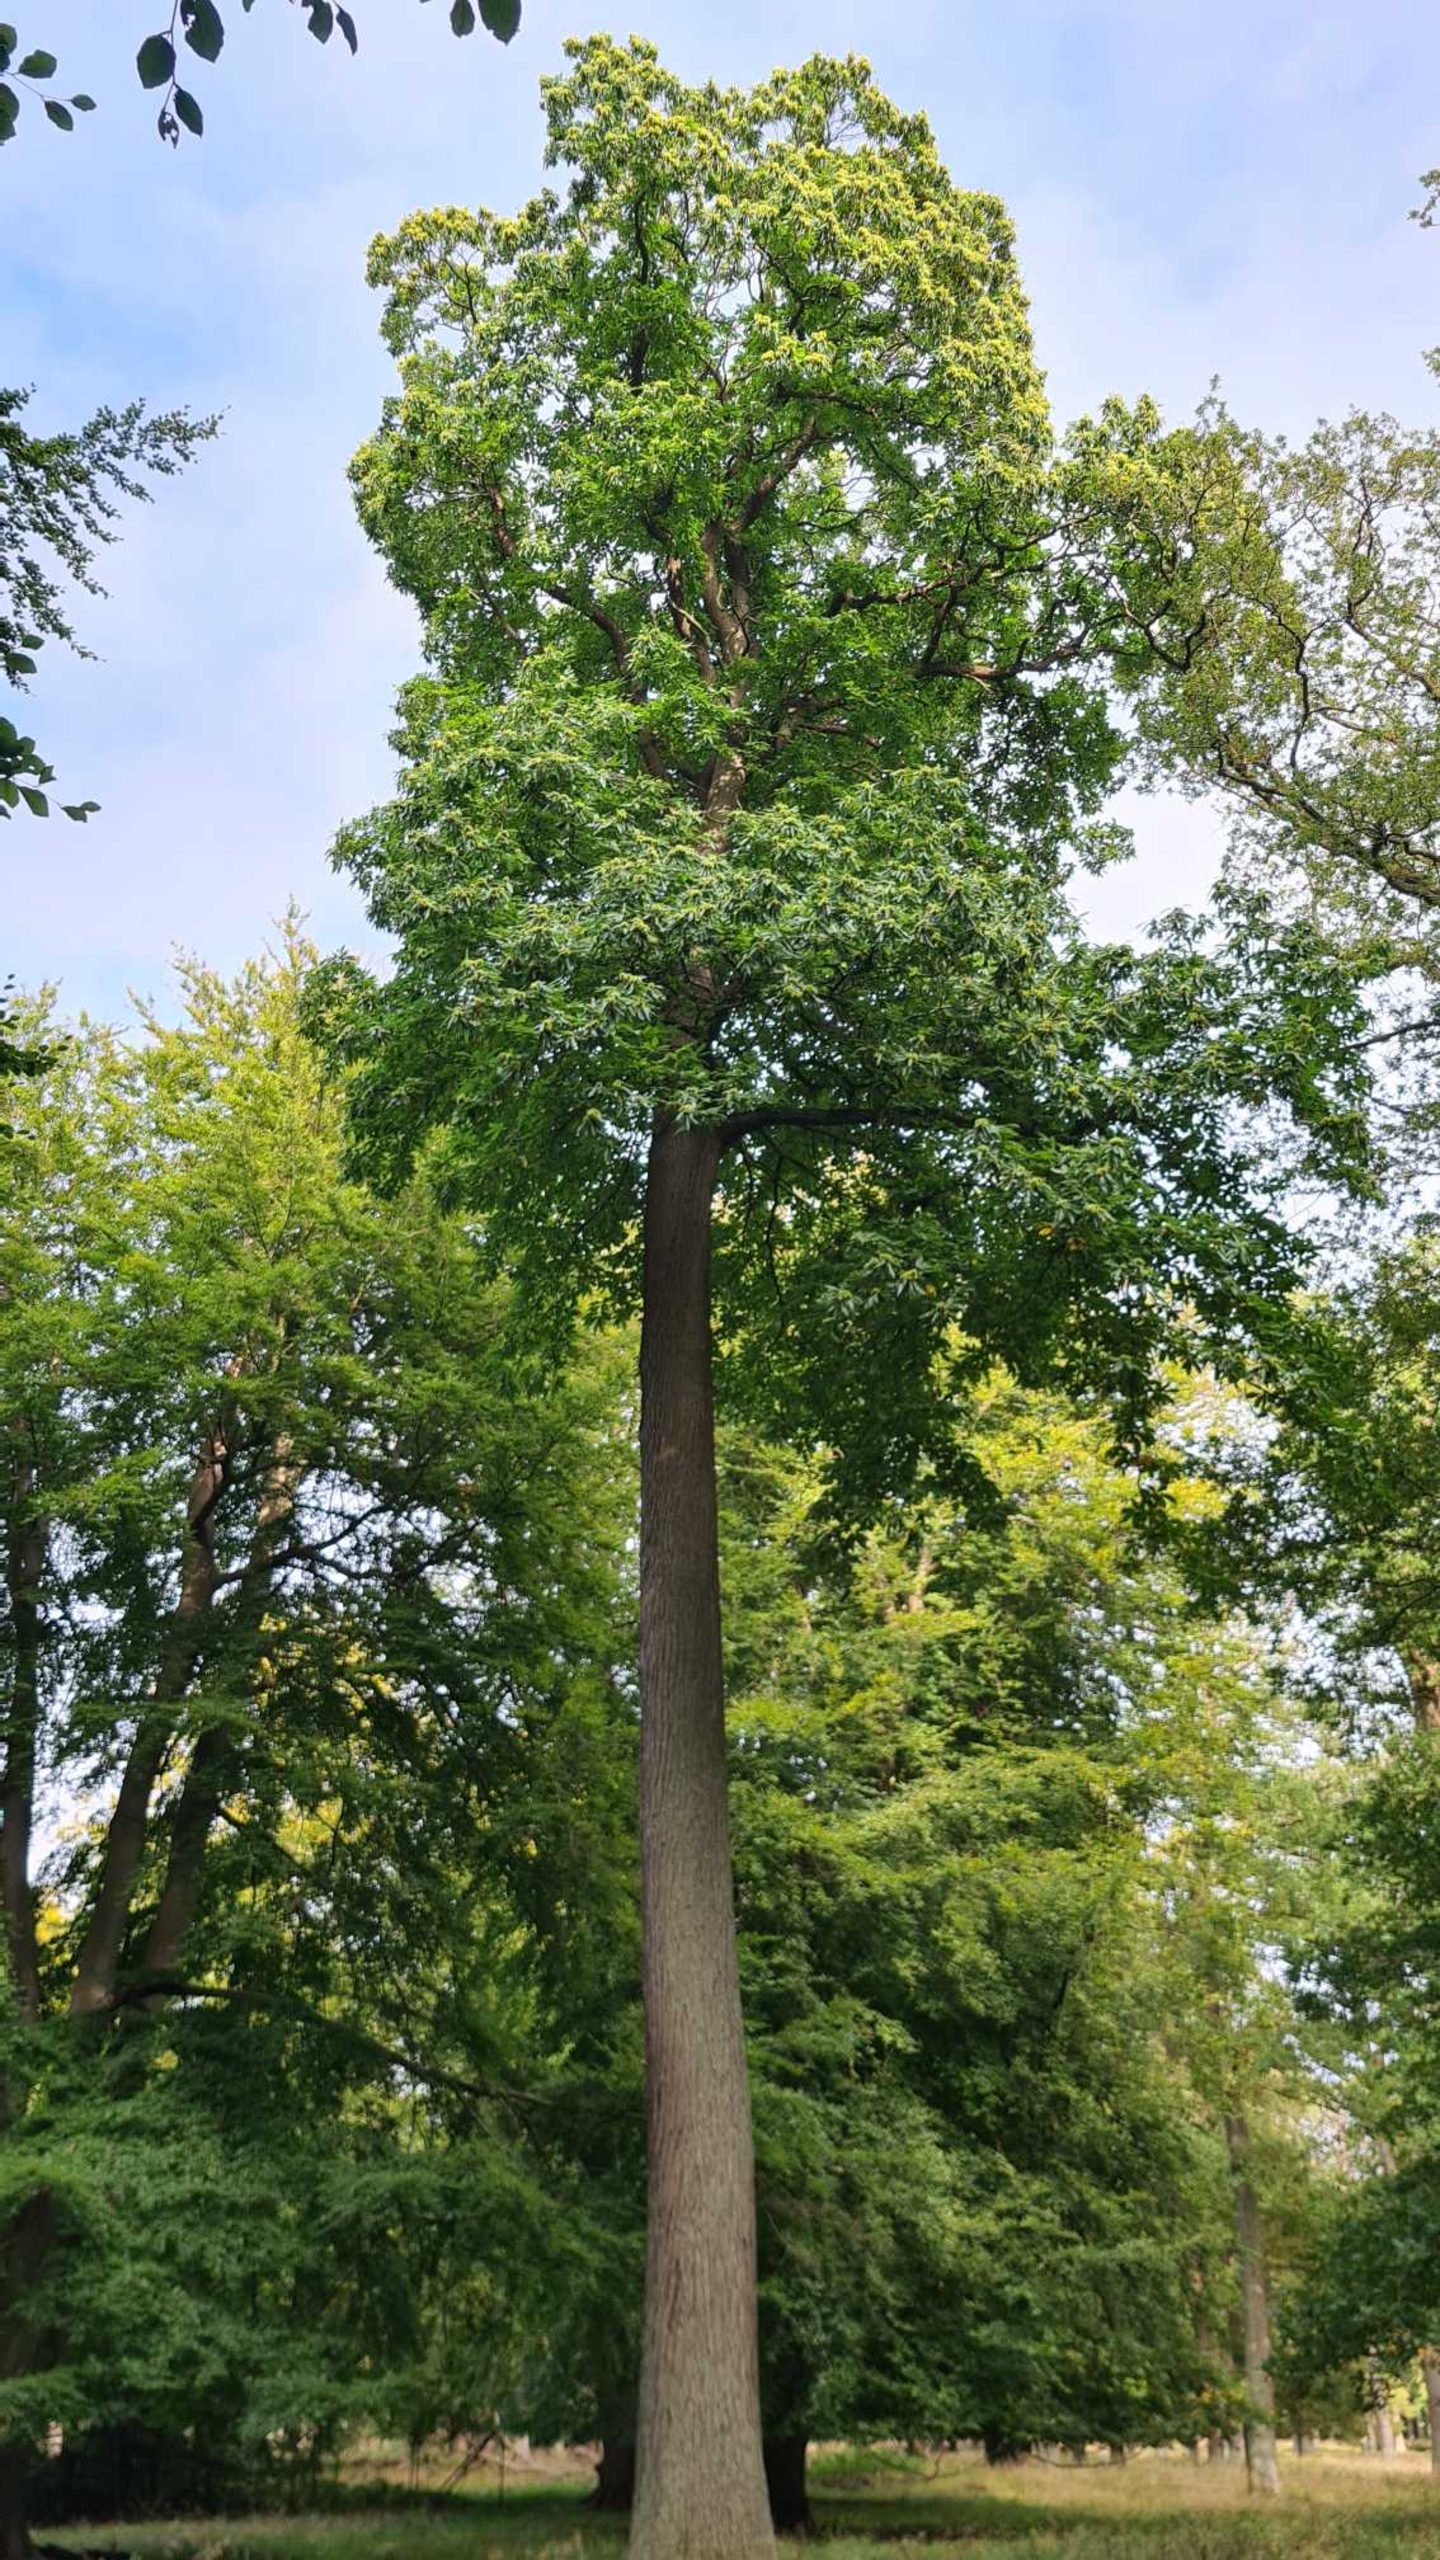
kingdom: Plantae
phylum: Tracheophyta
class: Magnoliopsida
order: Fagales
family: Fagaceae
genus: Castanea
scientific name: Castanea sativa
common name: Ægte kastanie
